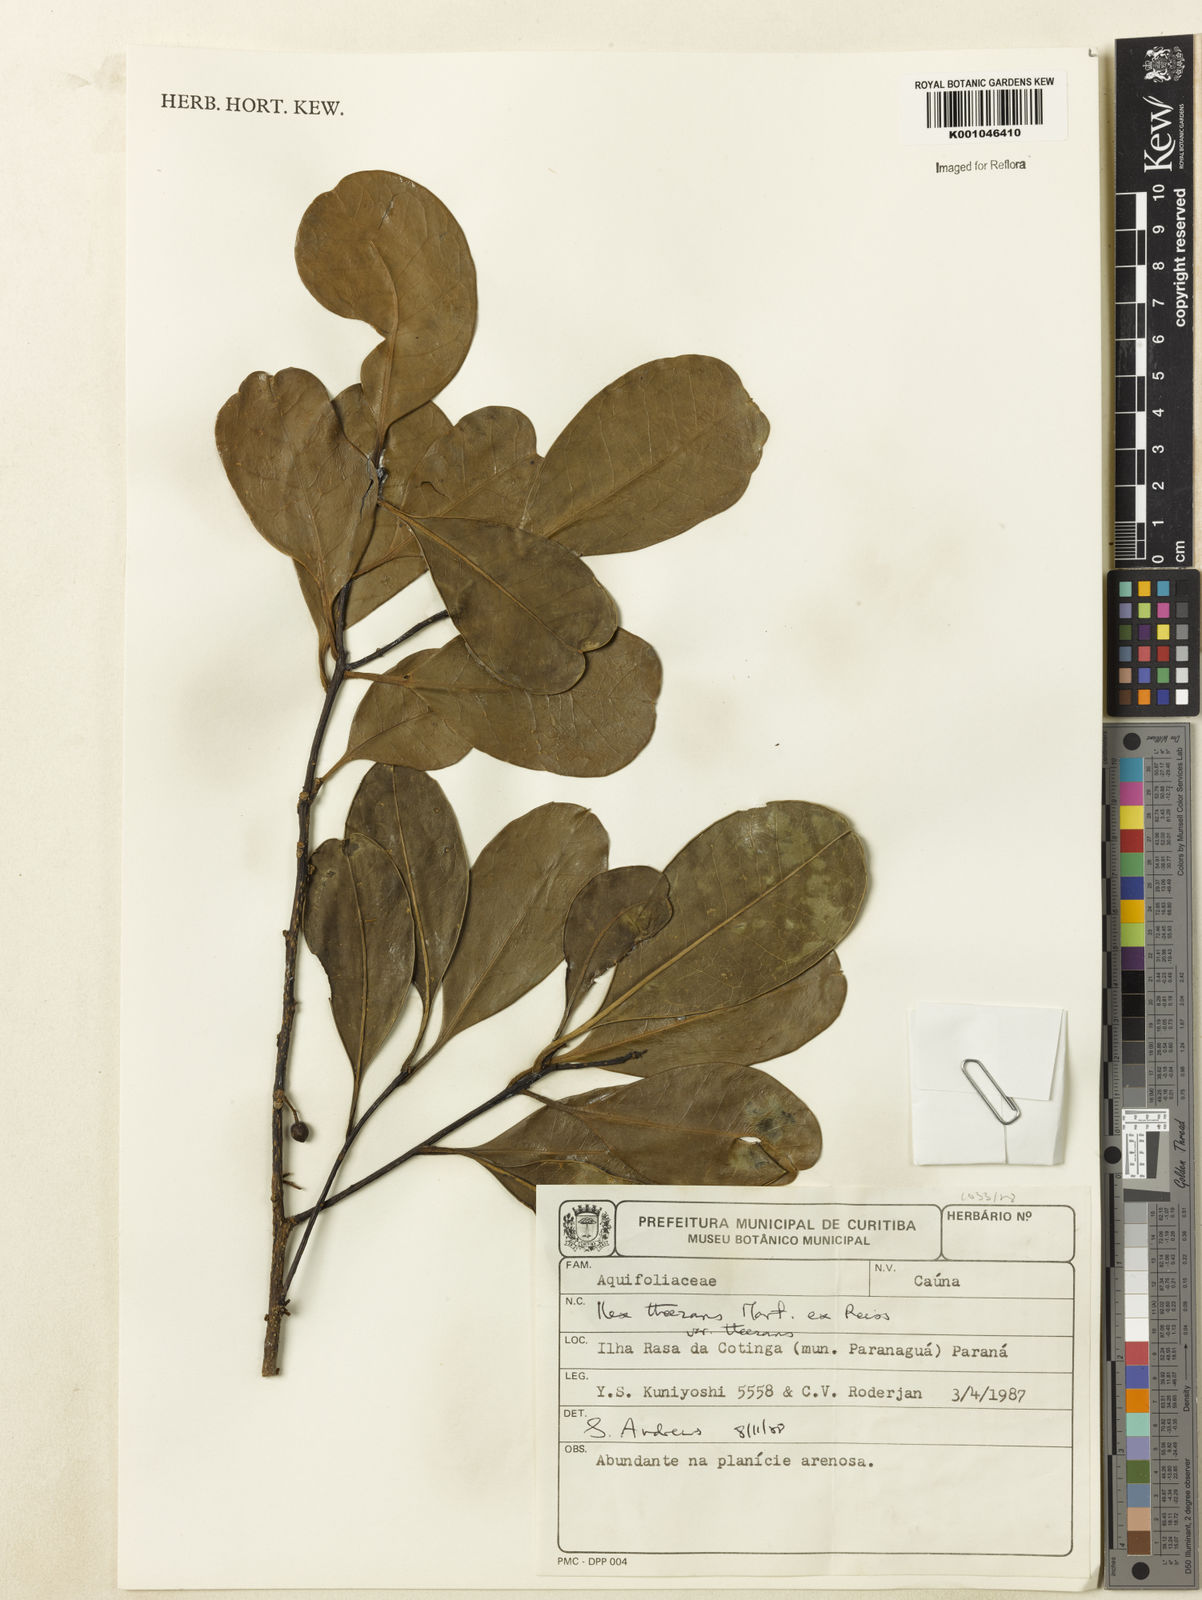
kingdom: Plantae
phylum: Tracheophyta
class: Magnoliopsida
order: Aquifoliales
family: Aquifoliaceae
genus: Ilex
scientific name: Ilex paraguariensis
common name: Paraguay tea
